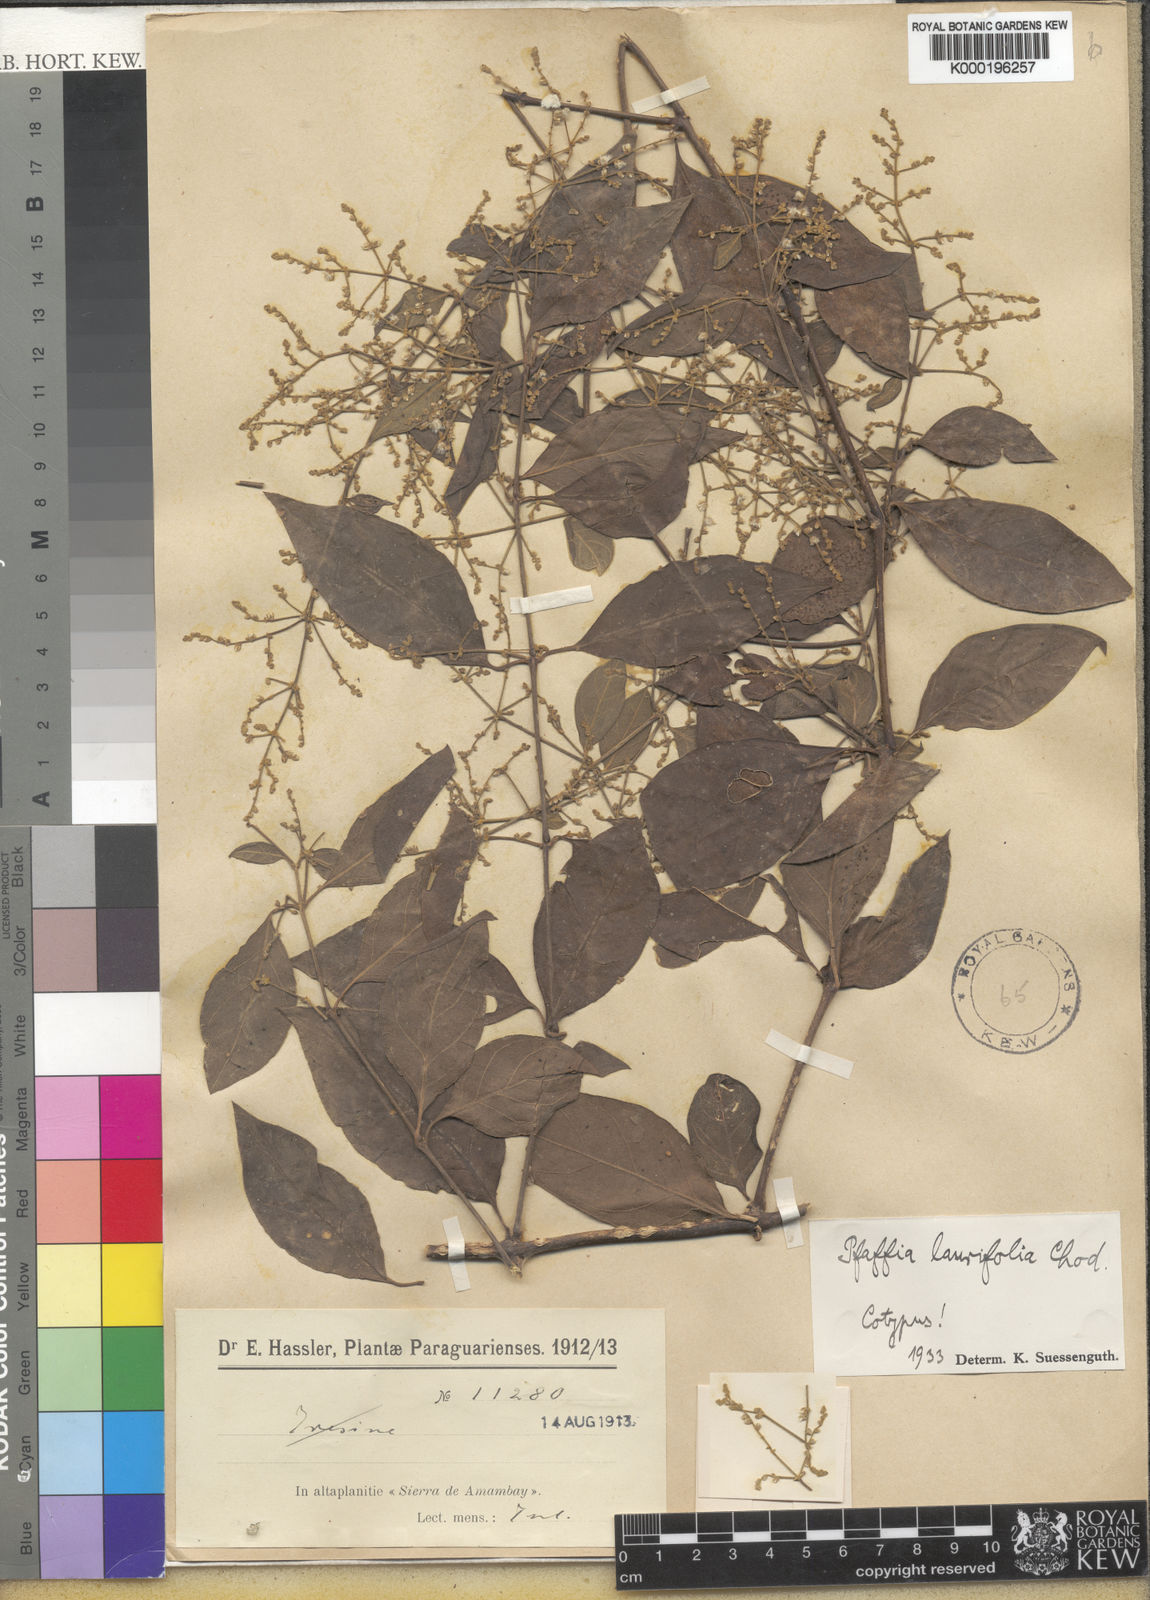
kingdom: Plantae
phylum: Tracheophyta
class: Magnoliopsida
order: Caryophyllales
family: Amaranthaceae
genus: Hebanthe
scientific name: Hebanthe erianthos
